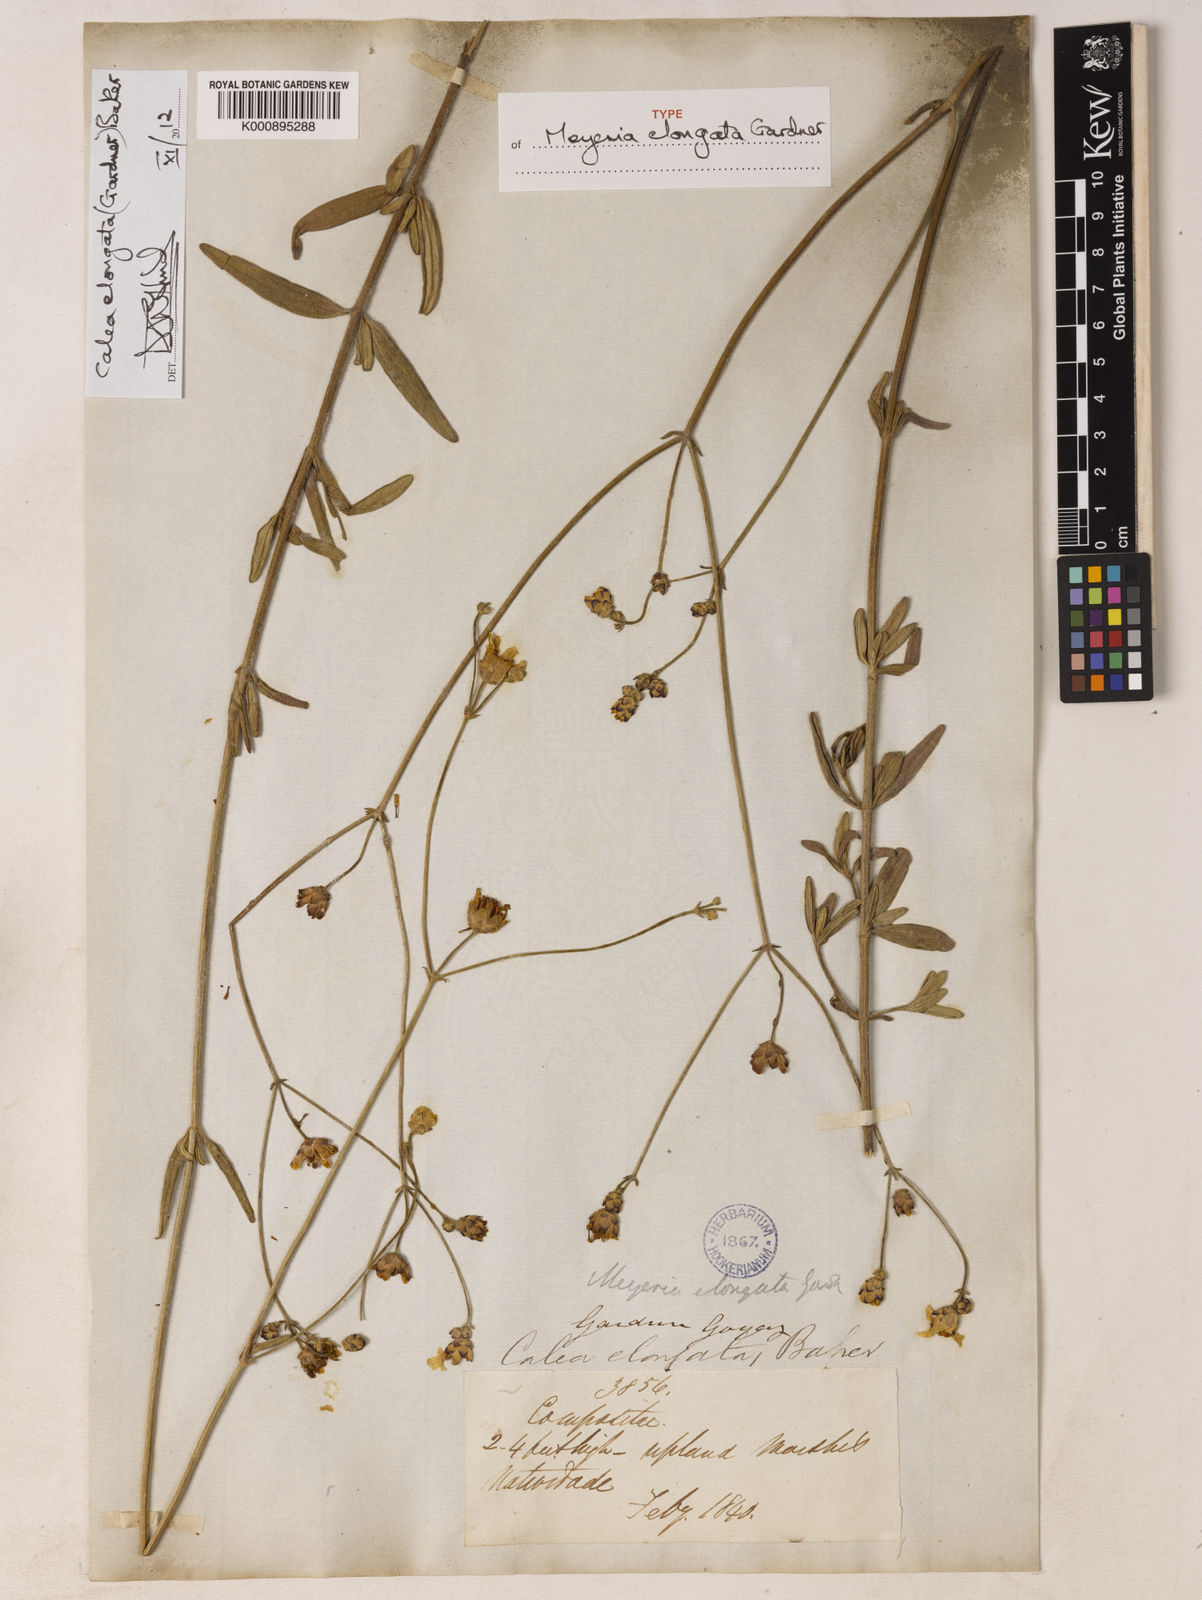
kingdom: Plantae
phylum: Tracheophyta
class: Magnoliopsida
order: Asterales
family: Asteraceae
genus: Calea
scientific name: Calea elongata
